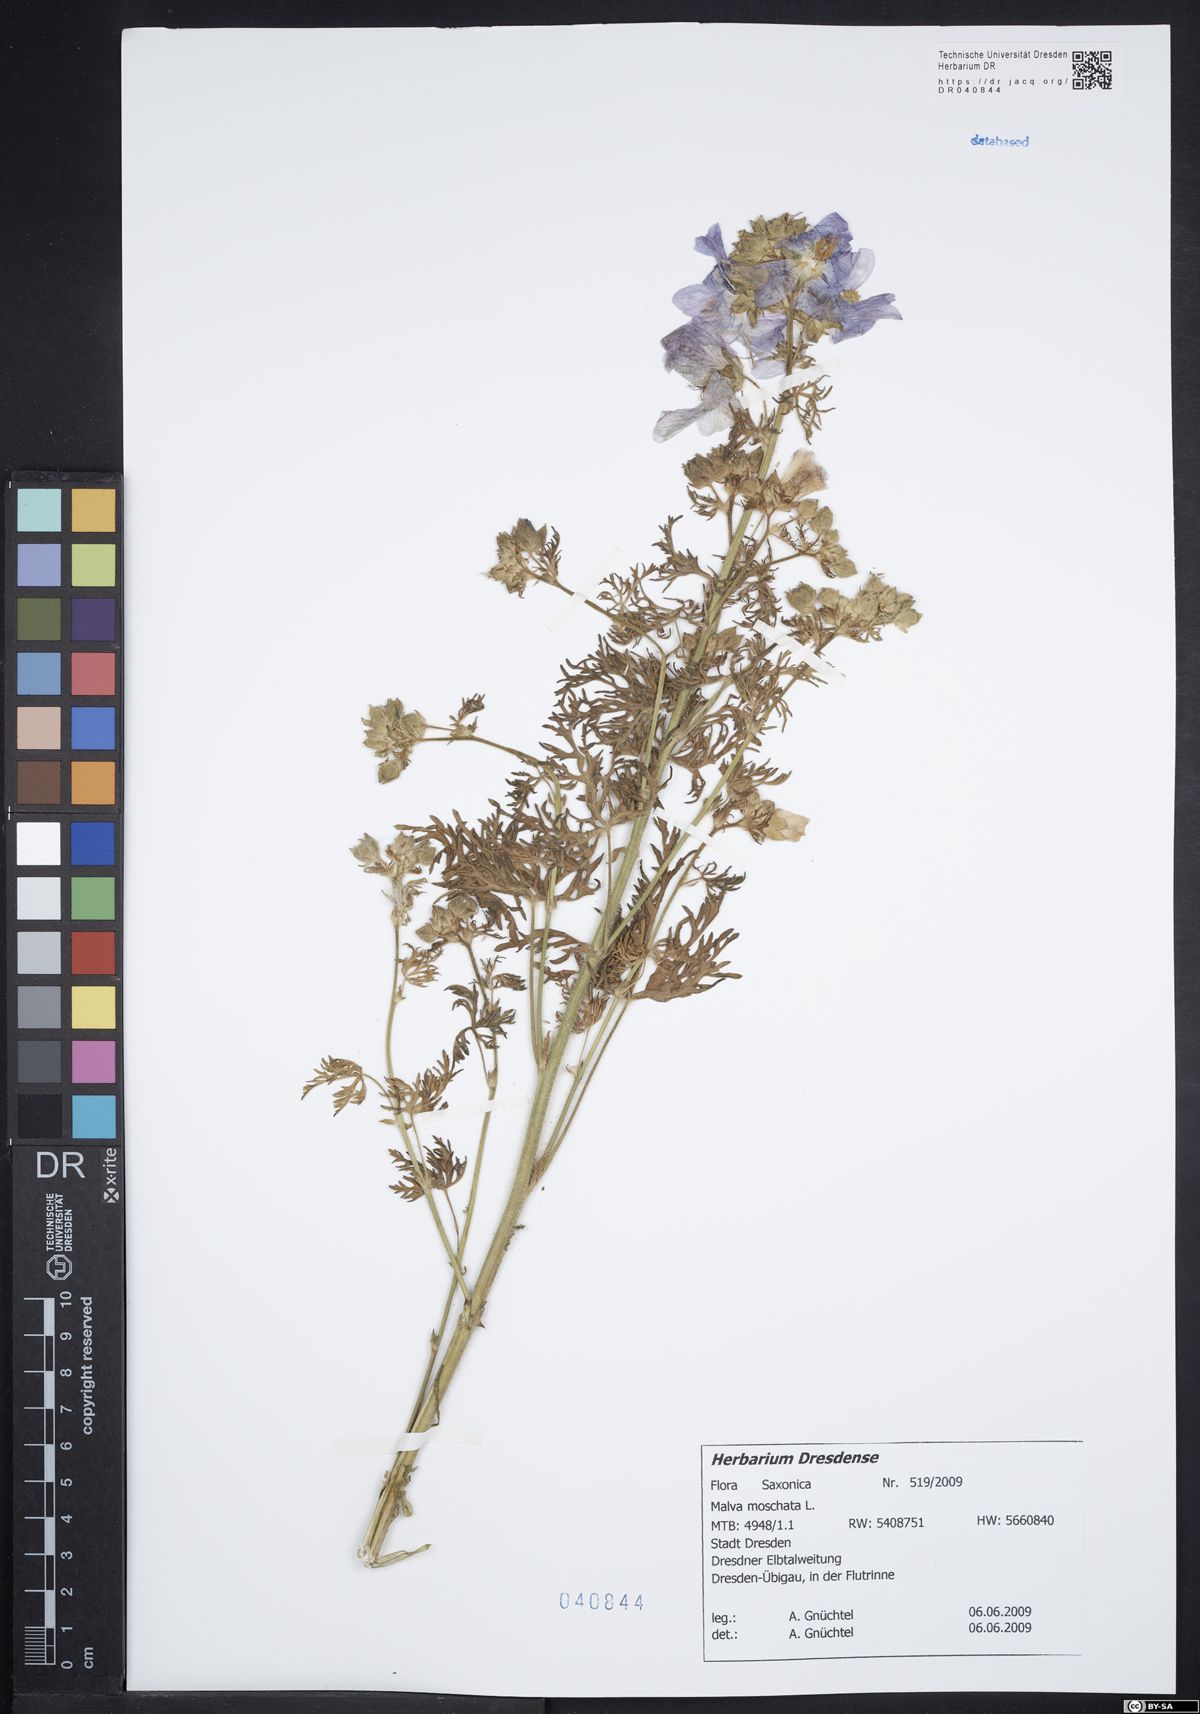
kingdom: Plantae
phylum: Tracheophyta
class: Magnoliopsida
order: Malvales
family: Malvaceae
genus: Malva
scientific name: Malva moschata
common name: Musk mallow
